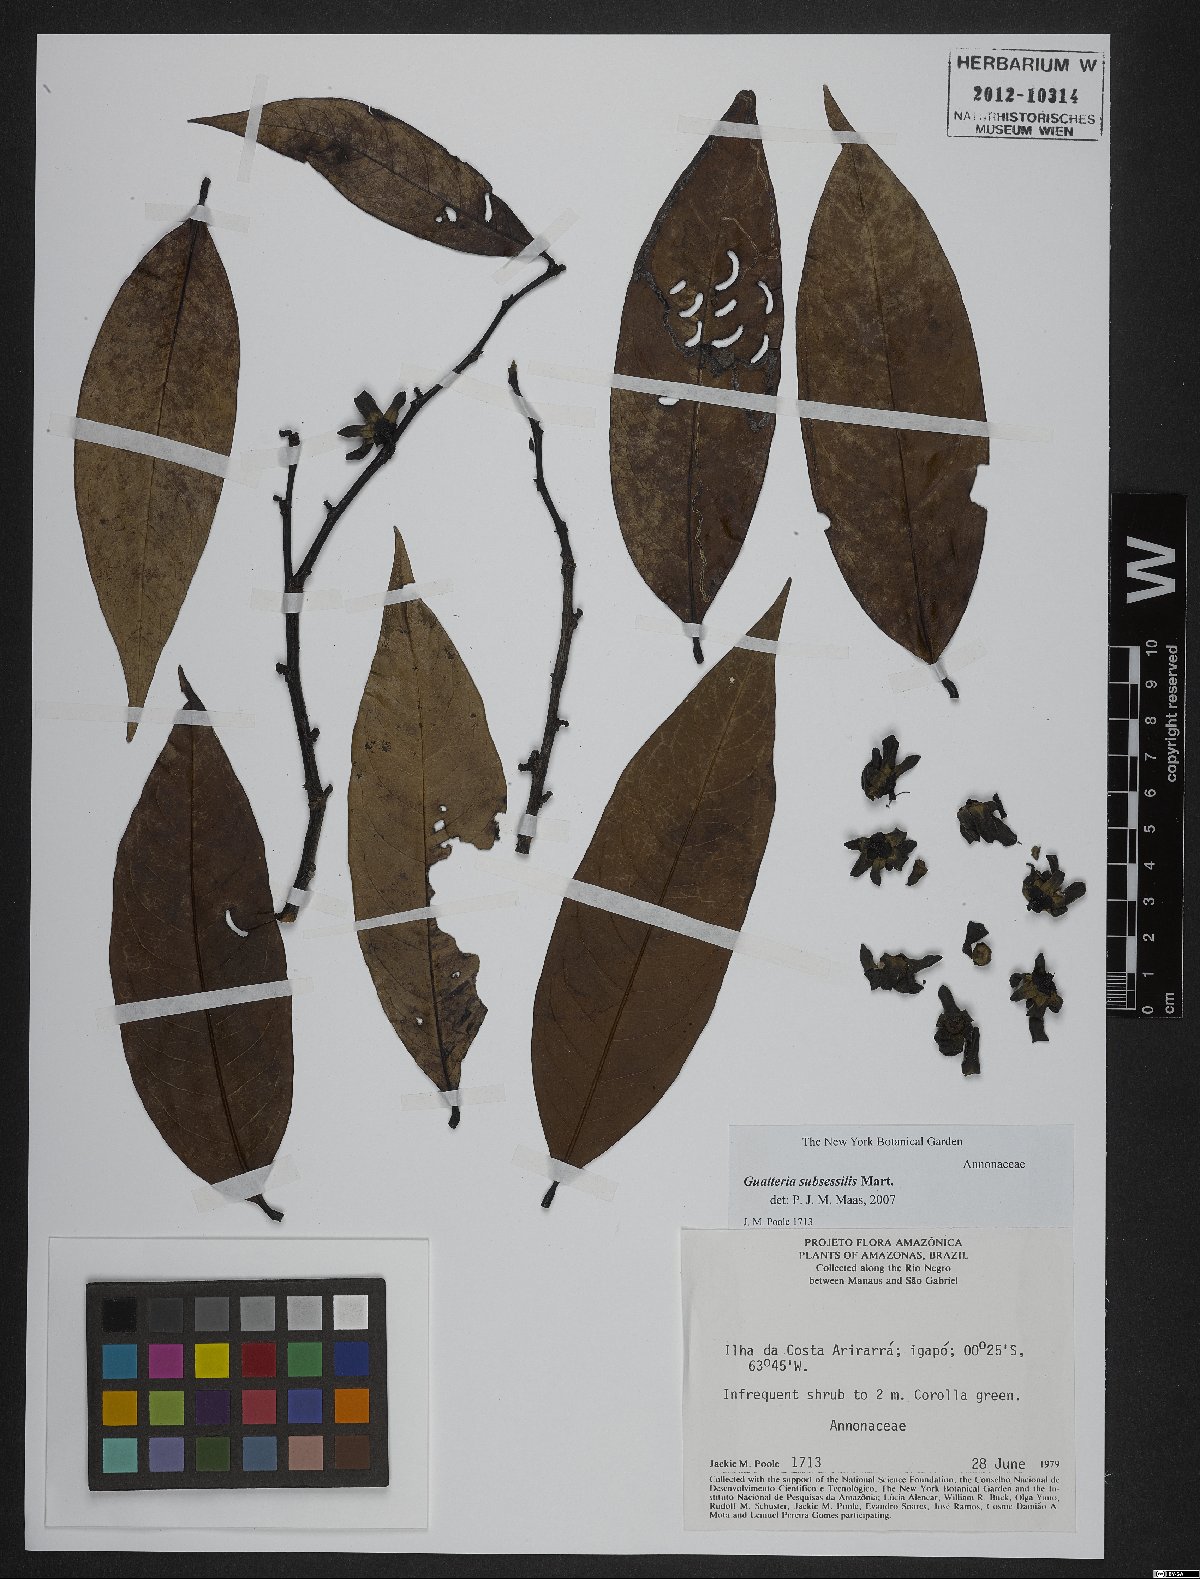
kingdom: Plantae
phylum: Tracheophyta
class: Magnoliopsida
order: Magnoliales
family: Annonaceae
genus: Guatteria
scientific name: Guatteria subsessilis
